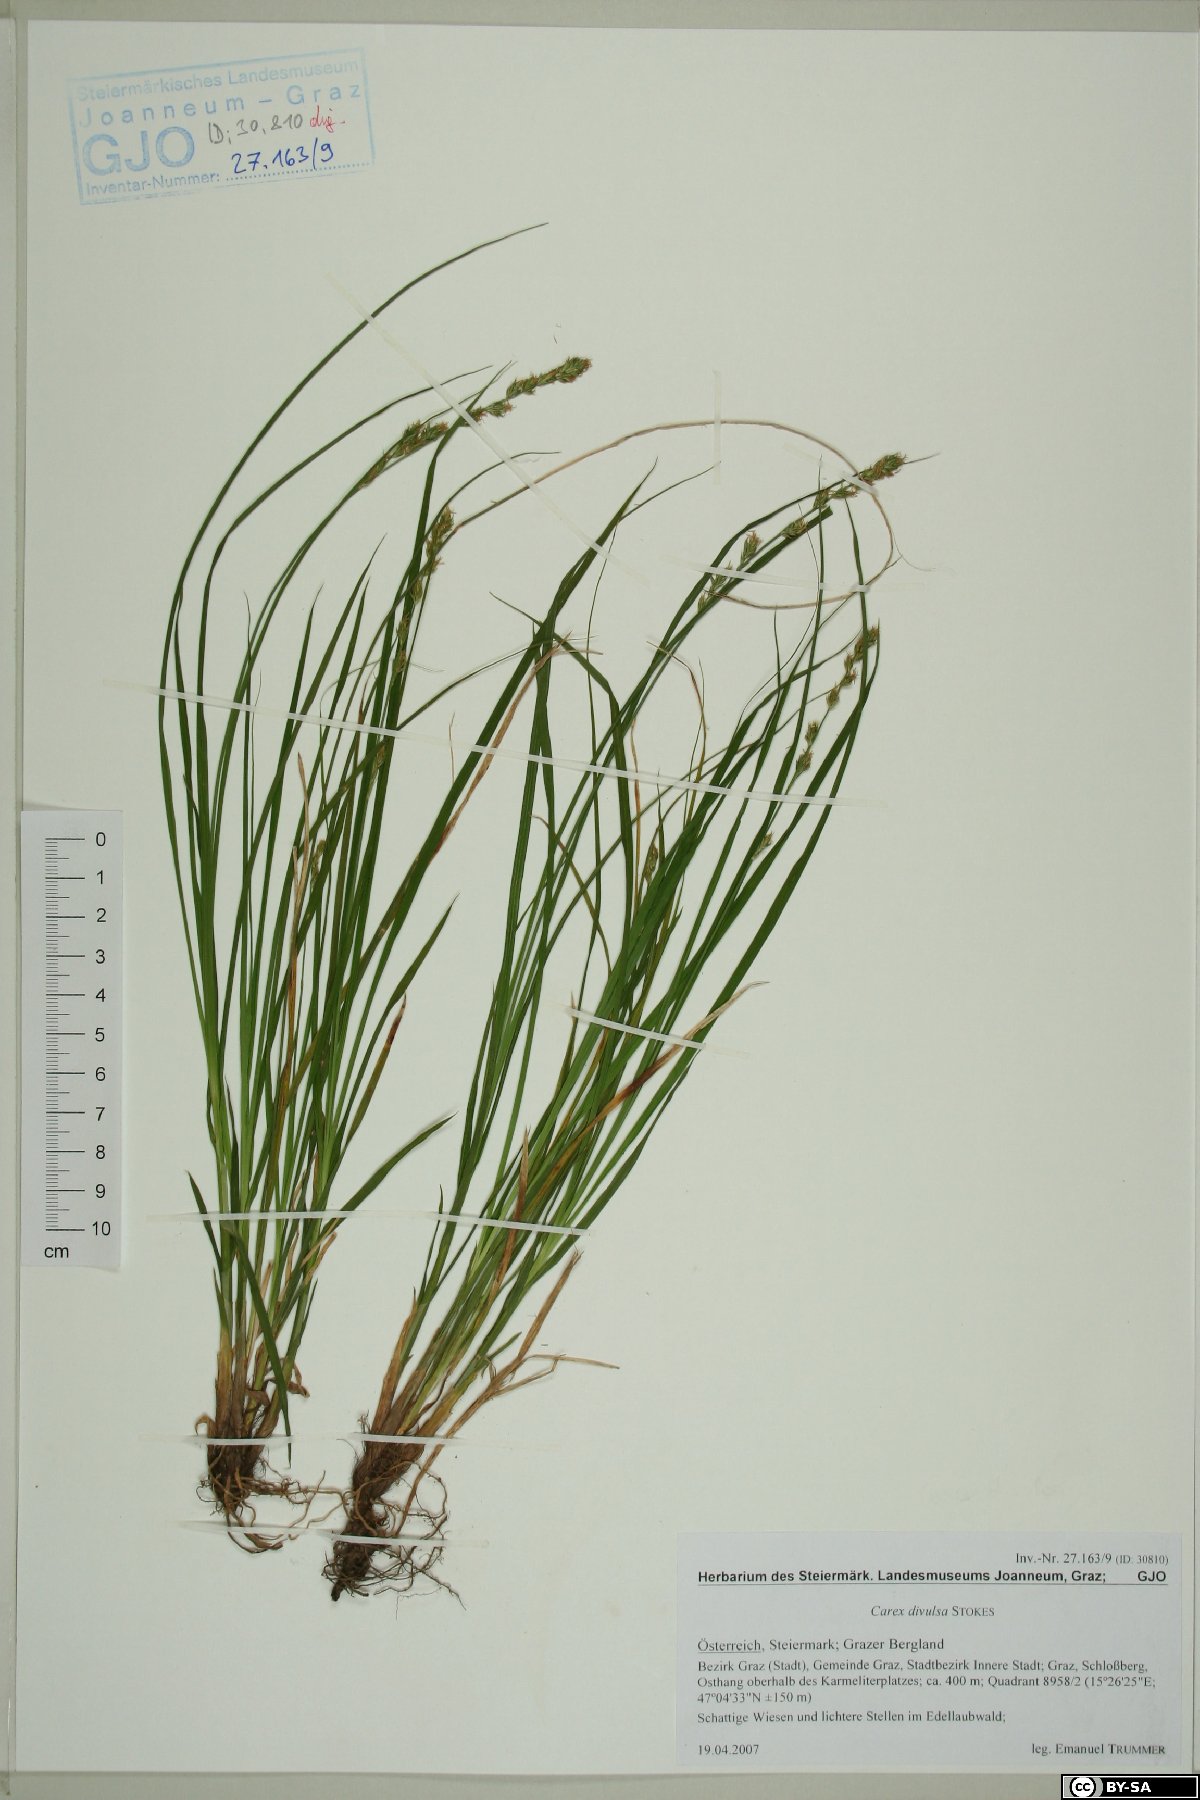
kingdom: Plantae
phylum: Tracheophyta
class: Liliopsida
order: Poales
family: Cyperaceae
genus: Carex
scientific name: Carex divulsa
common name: Grassland sedge
